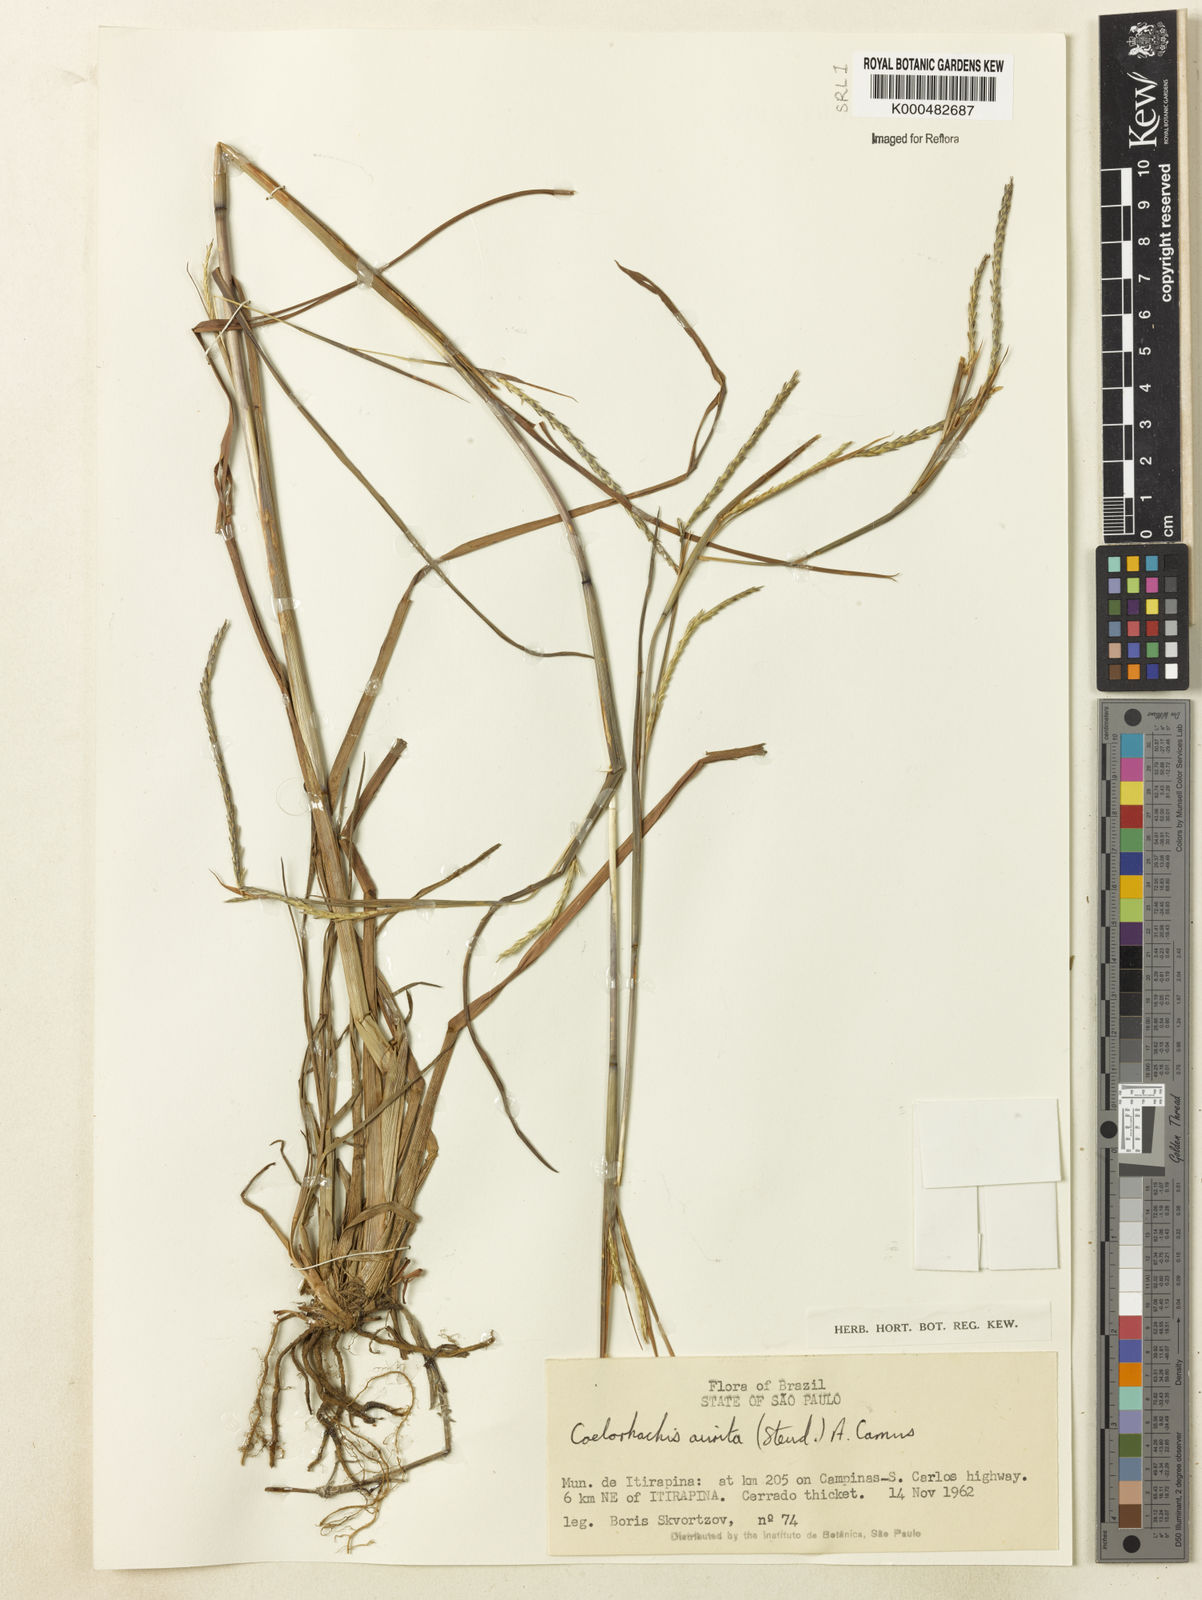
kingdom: Plantae
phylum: Tracheophyta
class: Liliopsida
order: Poales
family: Poaceae
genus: Rottboellia
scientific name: Rottboellia aurita
